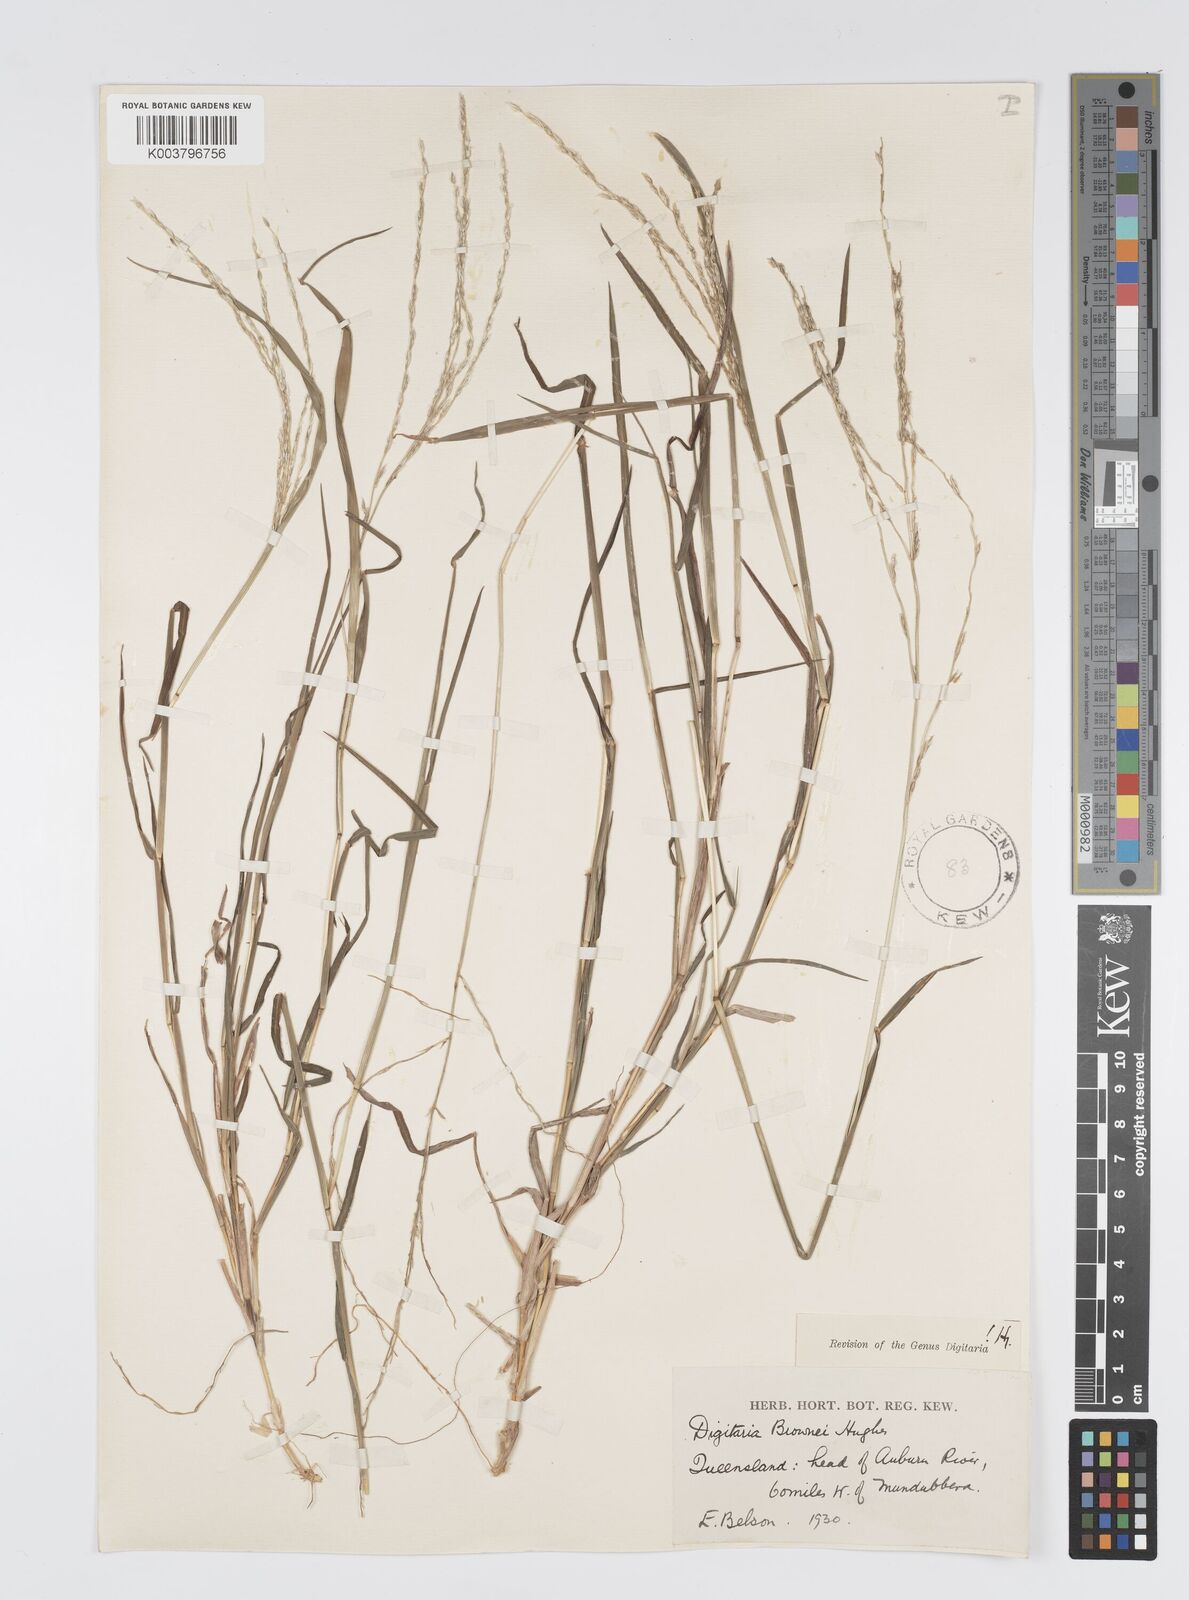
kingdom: Plantae
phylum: Tracheophyta
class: Liliopsida
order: Poales
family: Poaceae
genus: Digitaria
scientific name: Digitaria brownii
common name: Cotton grass
